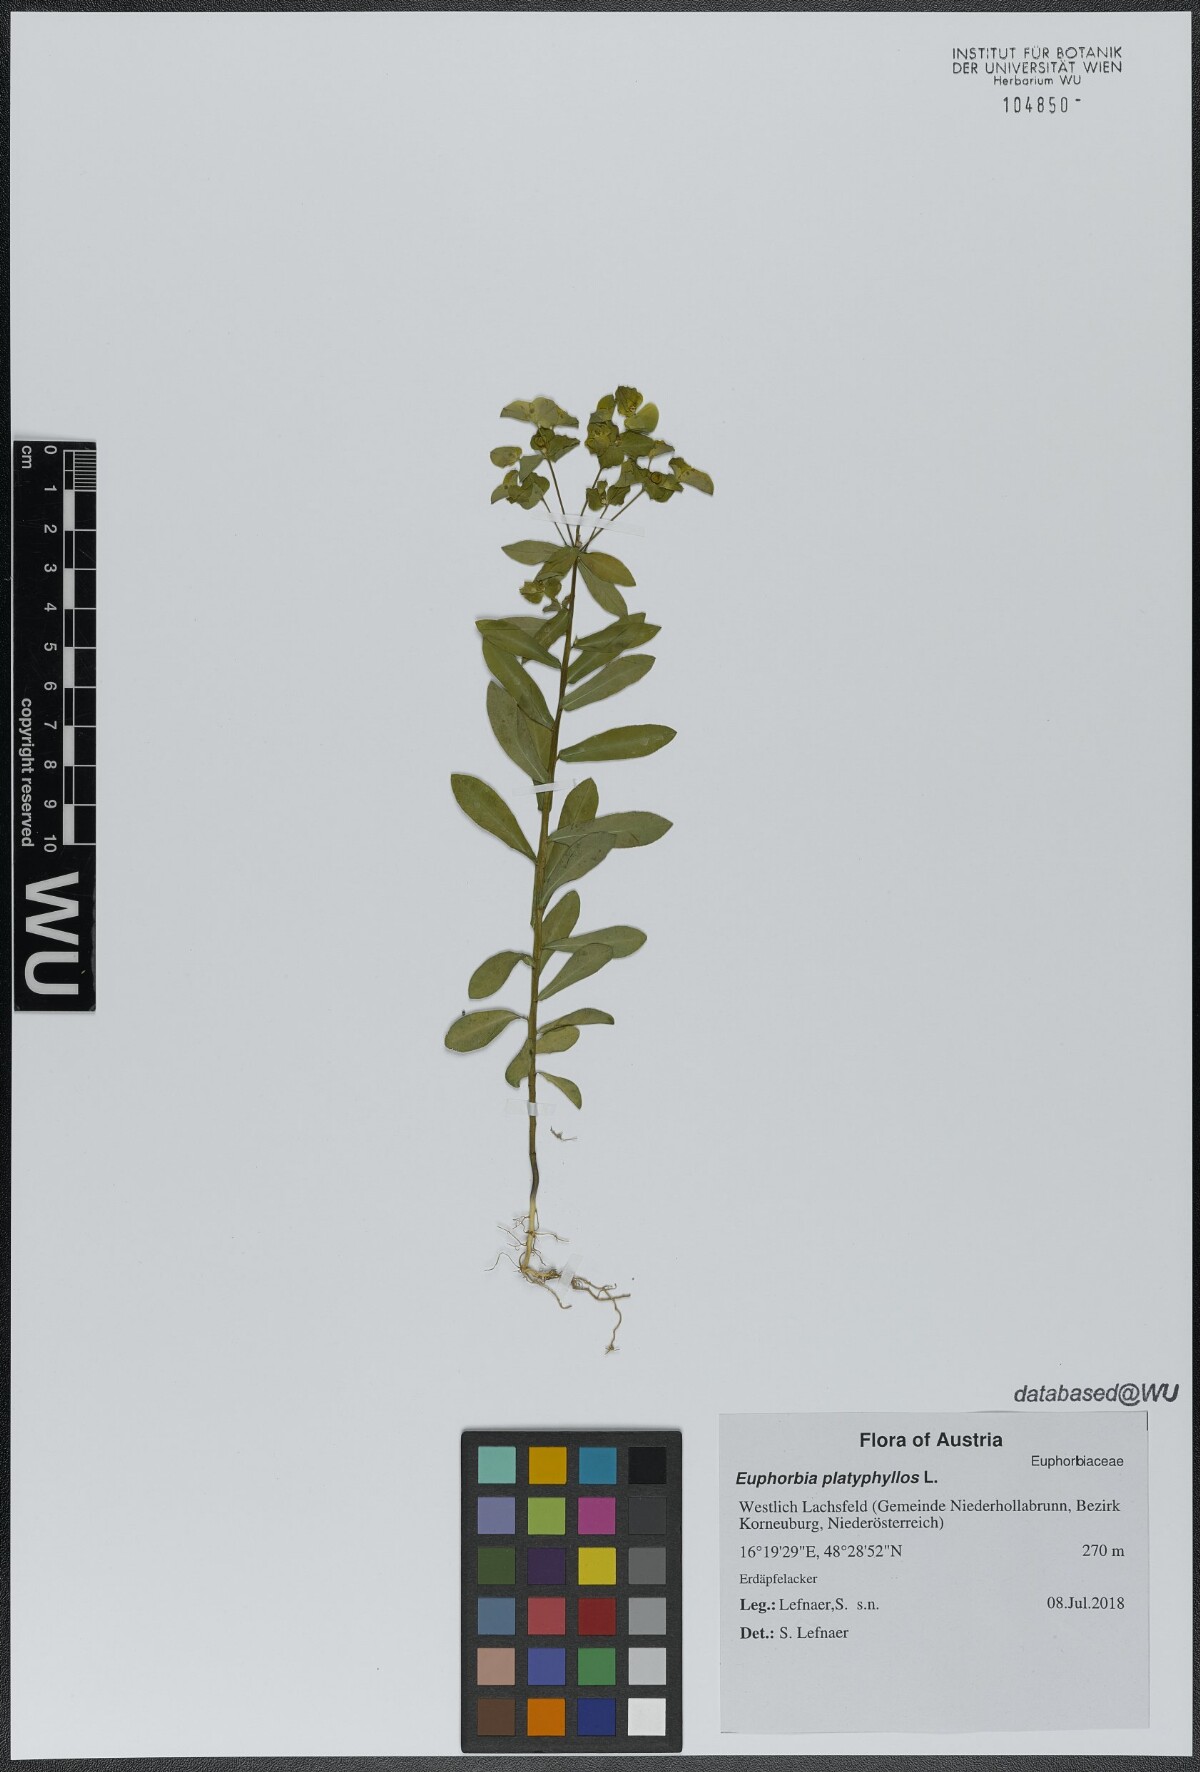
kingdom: Plantae
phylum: Tracheophyta
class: Magnoliopsida
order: Malpighiales
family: Euphorbiaceae
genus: Euphorbia
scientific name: Euphorbia platyphyllos
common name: Broad-leaved spurge
